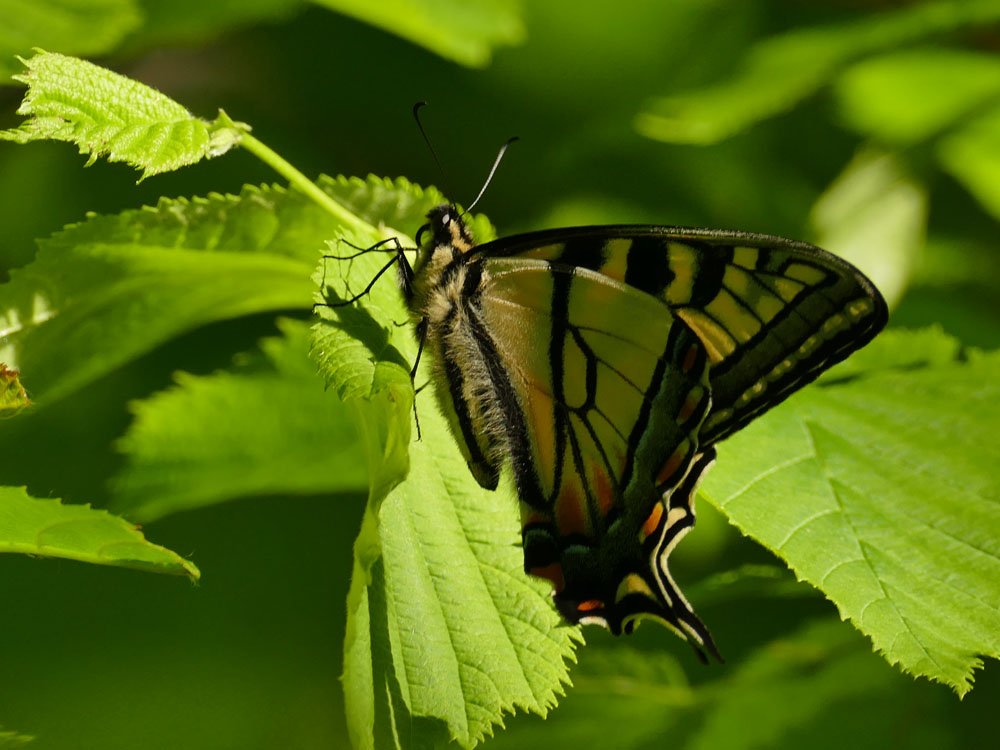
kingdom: Animalia
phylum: Arthropoda
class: Insecta
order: Lepidoptera
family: Papilionidae
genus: Pterourus
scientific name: Pterourus canadensis
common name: Canadian Tiger Swallowtail
